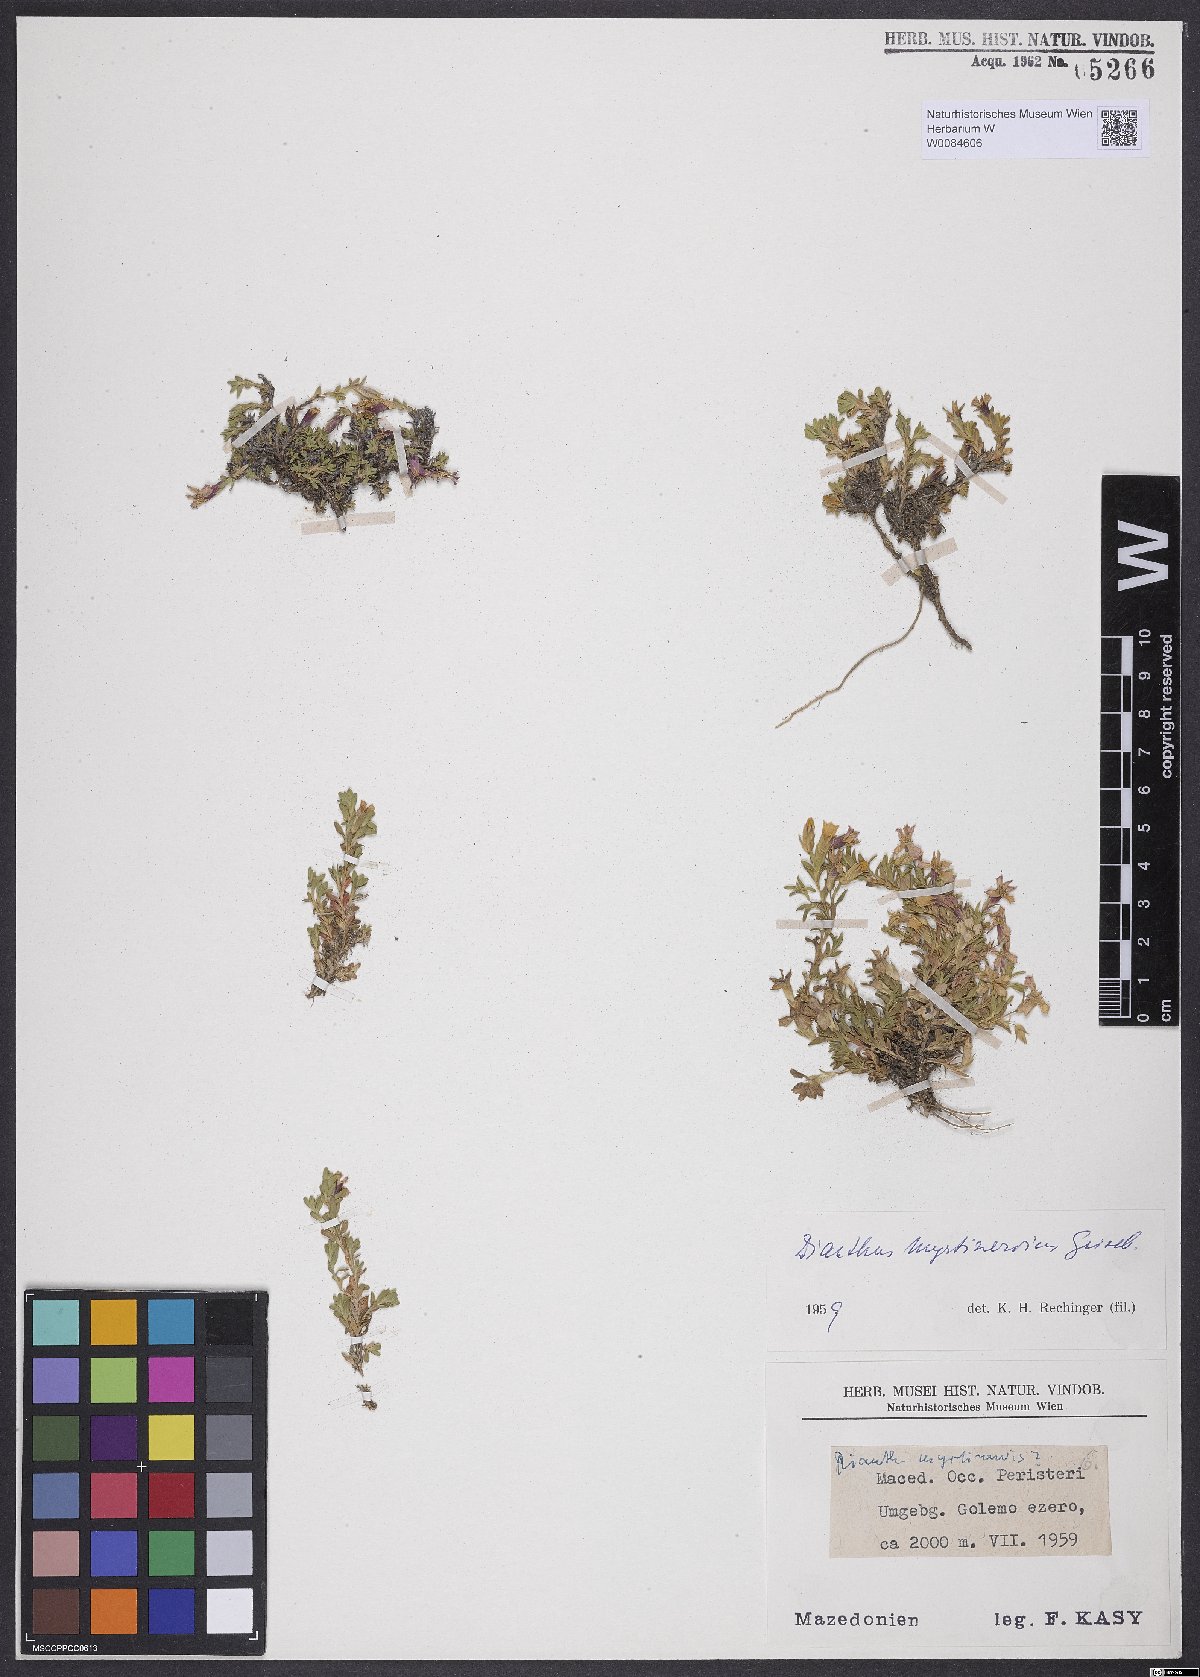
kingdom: Plantae
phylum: Tracheophyta
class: Magnoliopsida
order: Caryophyllales
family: Caryophyllaceae
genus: Dianthus
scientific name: Dianthus myrtinervius
